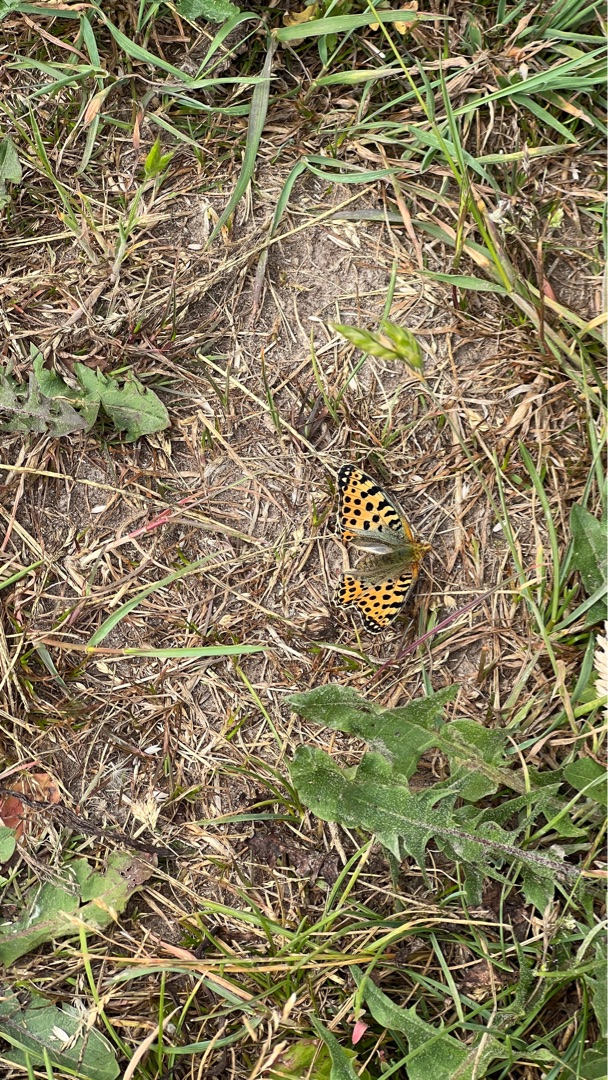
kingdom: Animalia
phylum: Arthropoda
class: Insecta
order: Lepidoptera
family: Nymphalidae
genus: Issoria
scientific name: Issoria lathonia
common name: Storplettet perlemorsommerfugl
